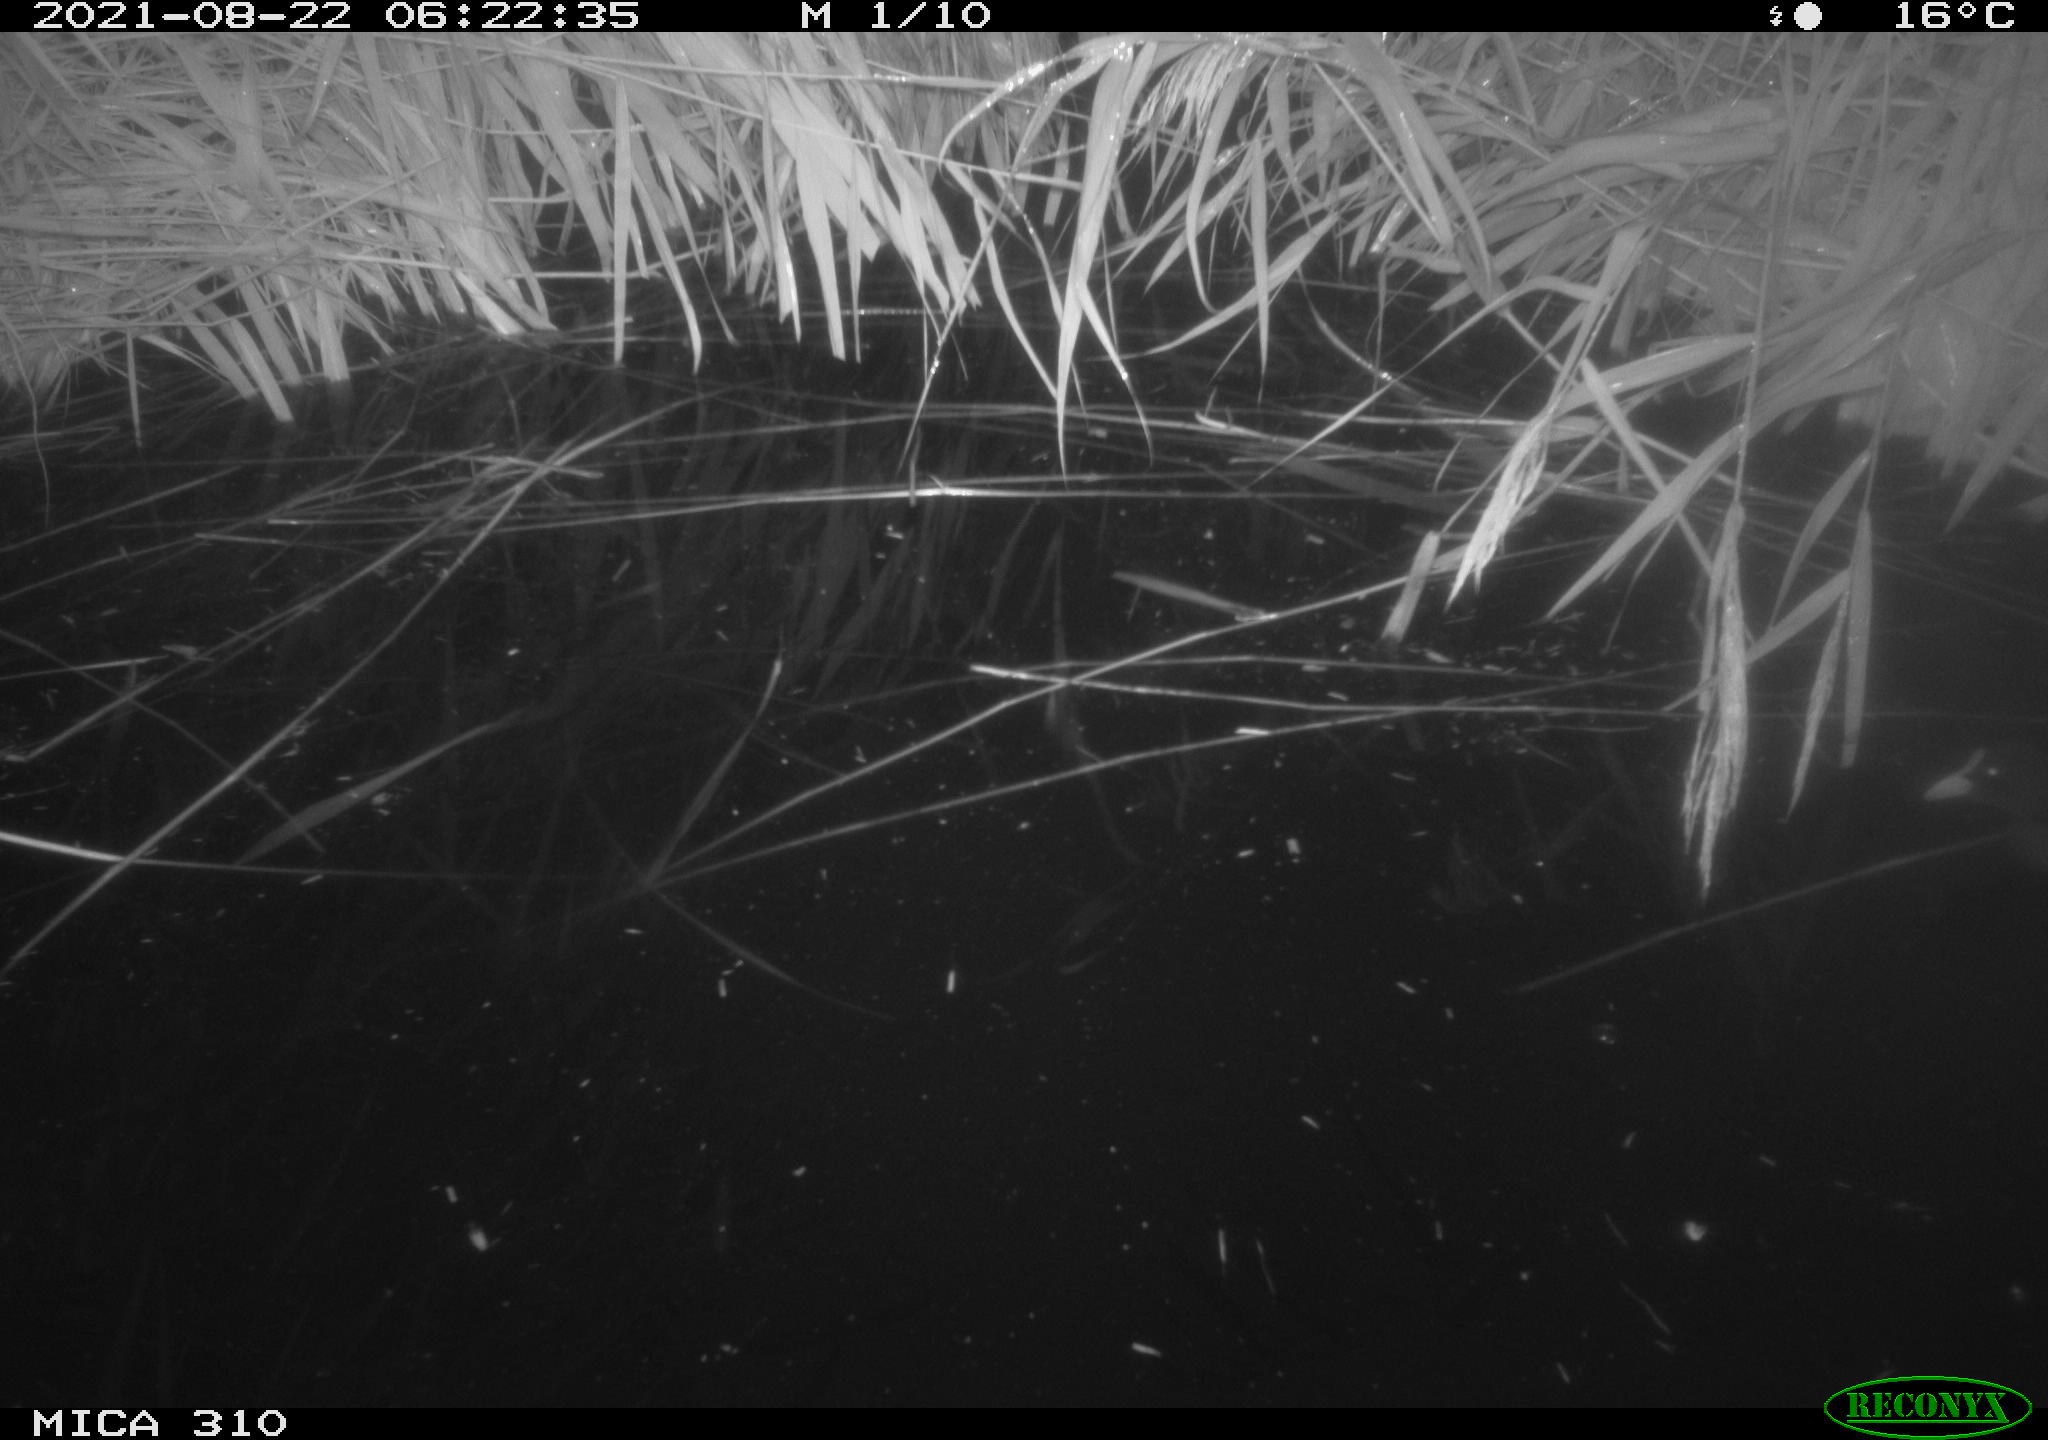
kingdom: Animalia
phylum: Chordata
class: Aves
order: Gruiformes
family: Rallidae
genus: Fulica
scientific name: Fulica atra
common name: Eurasian coot
